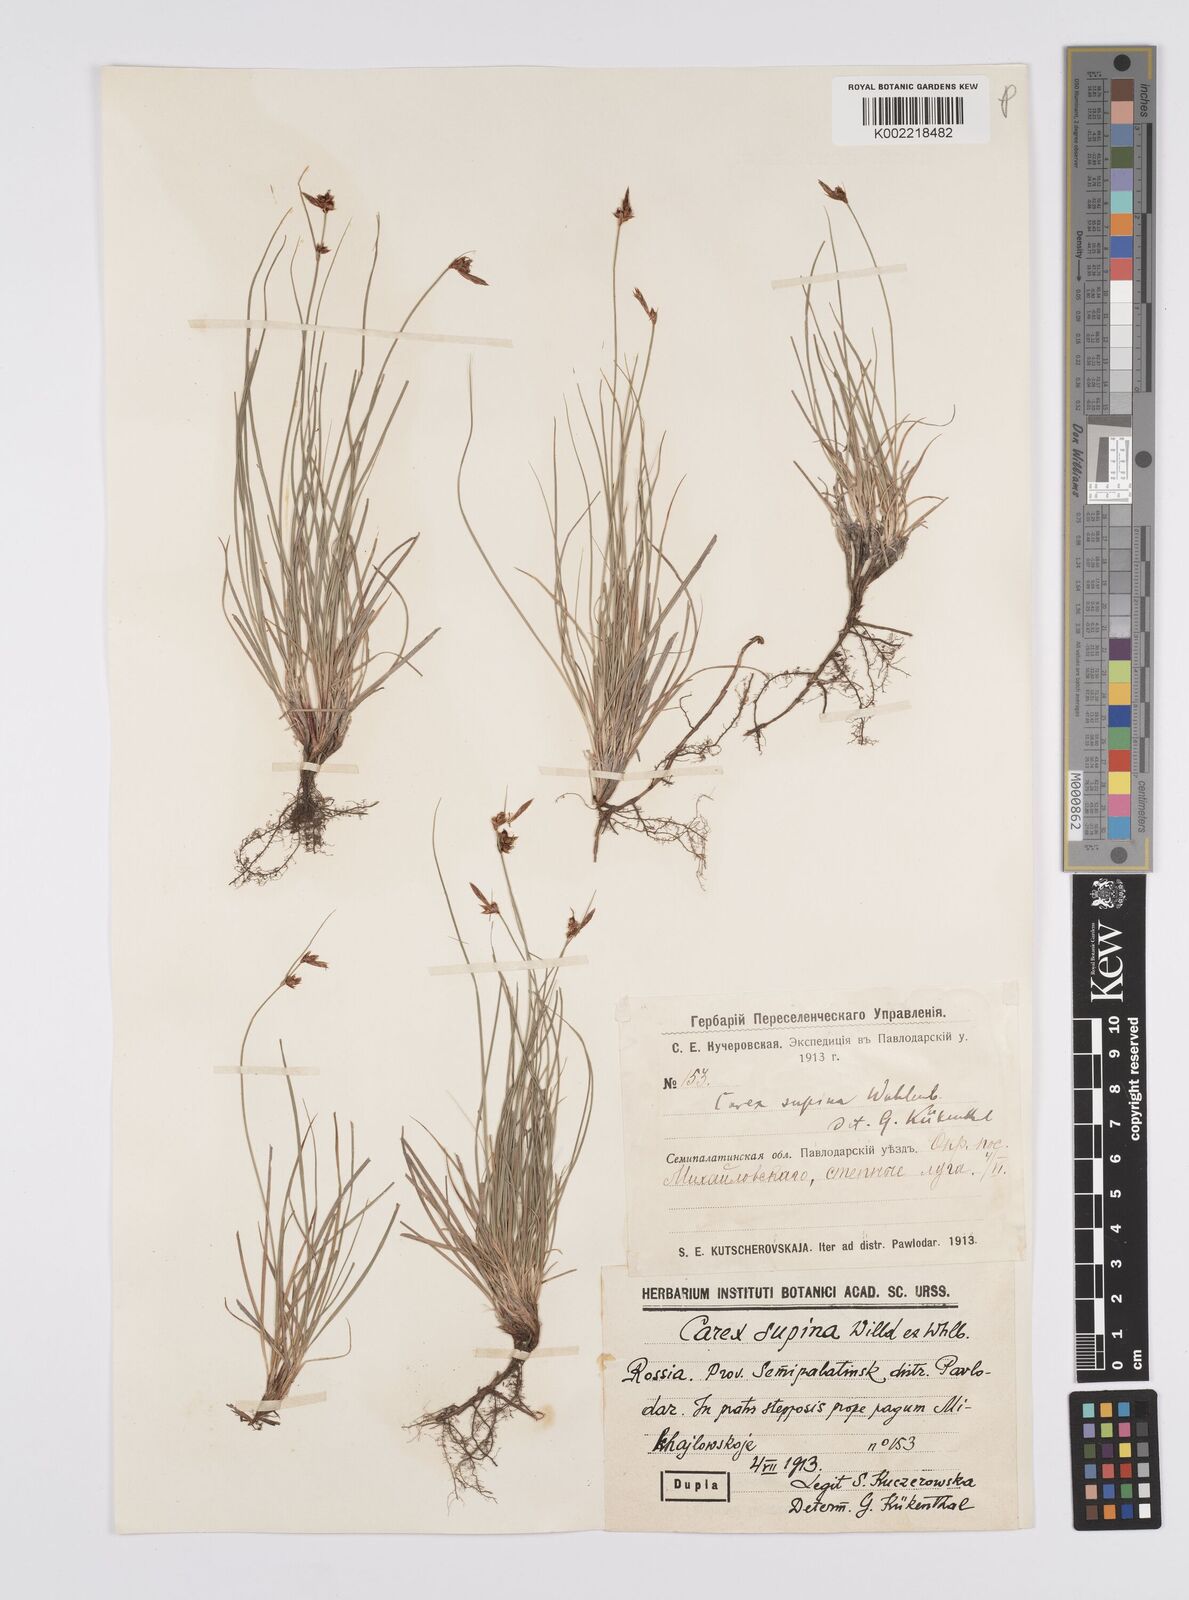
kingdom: Plantae
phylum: Tracheophyta
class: Liliopsida
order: Poales
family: Cyperaceae
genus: Carex
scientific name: Carex supina
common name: Lying-back sedge
